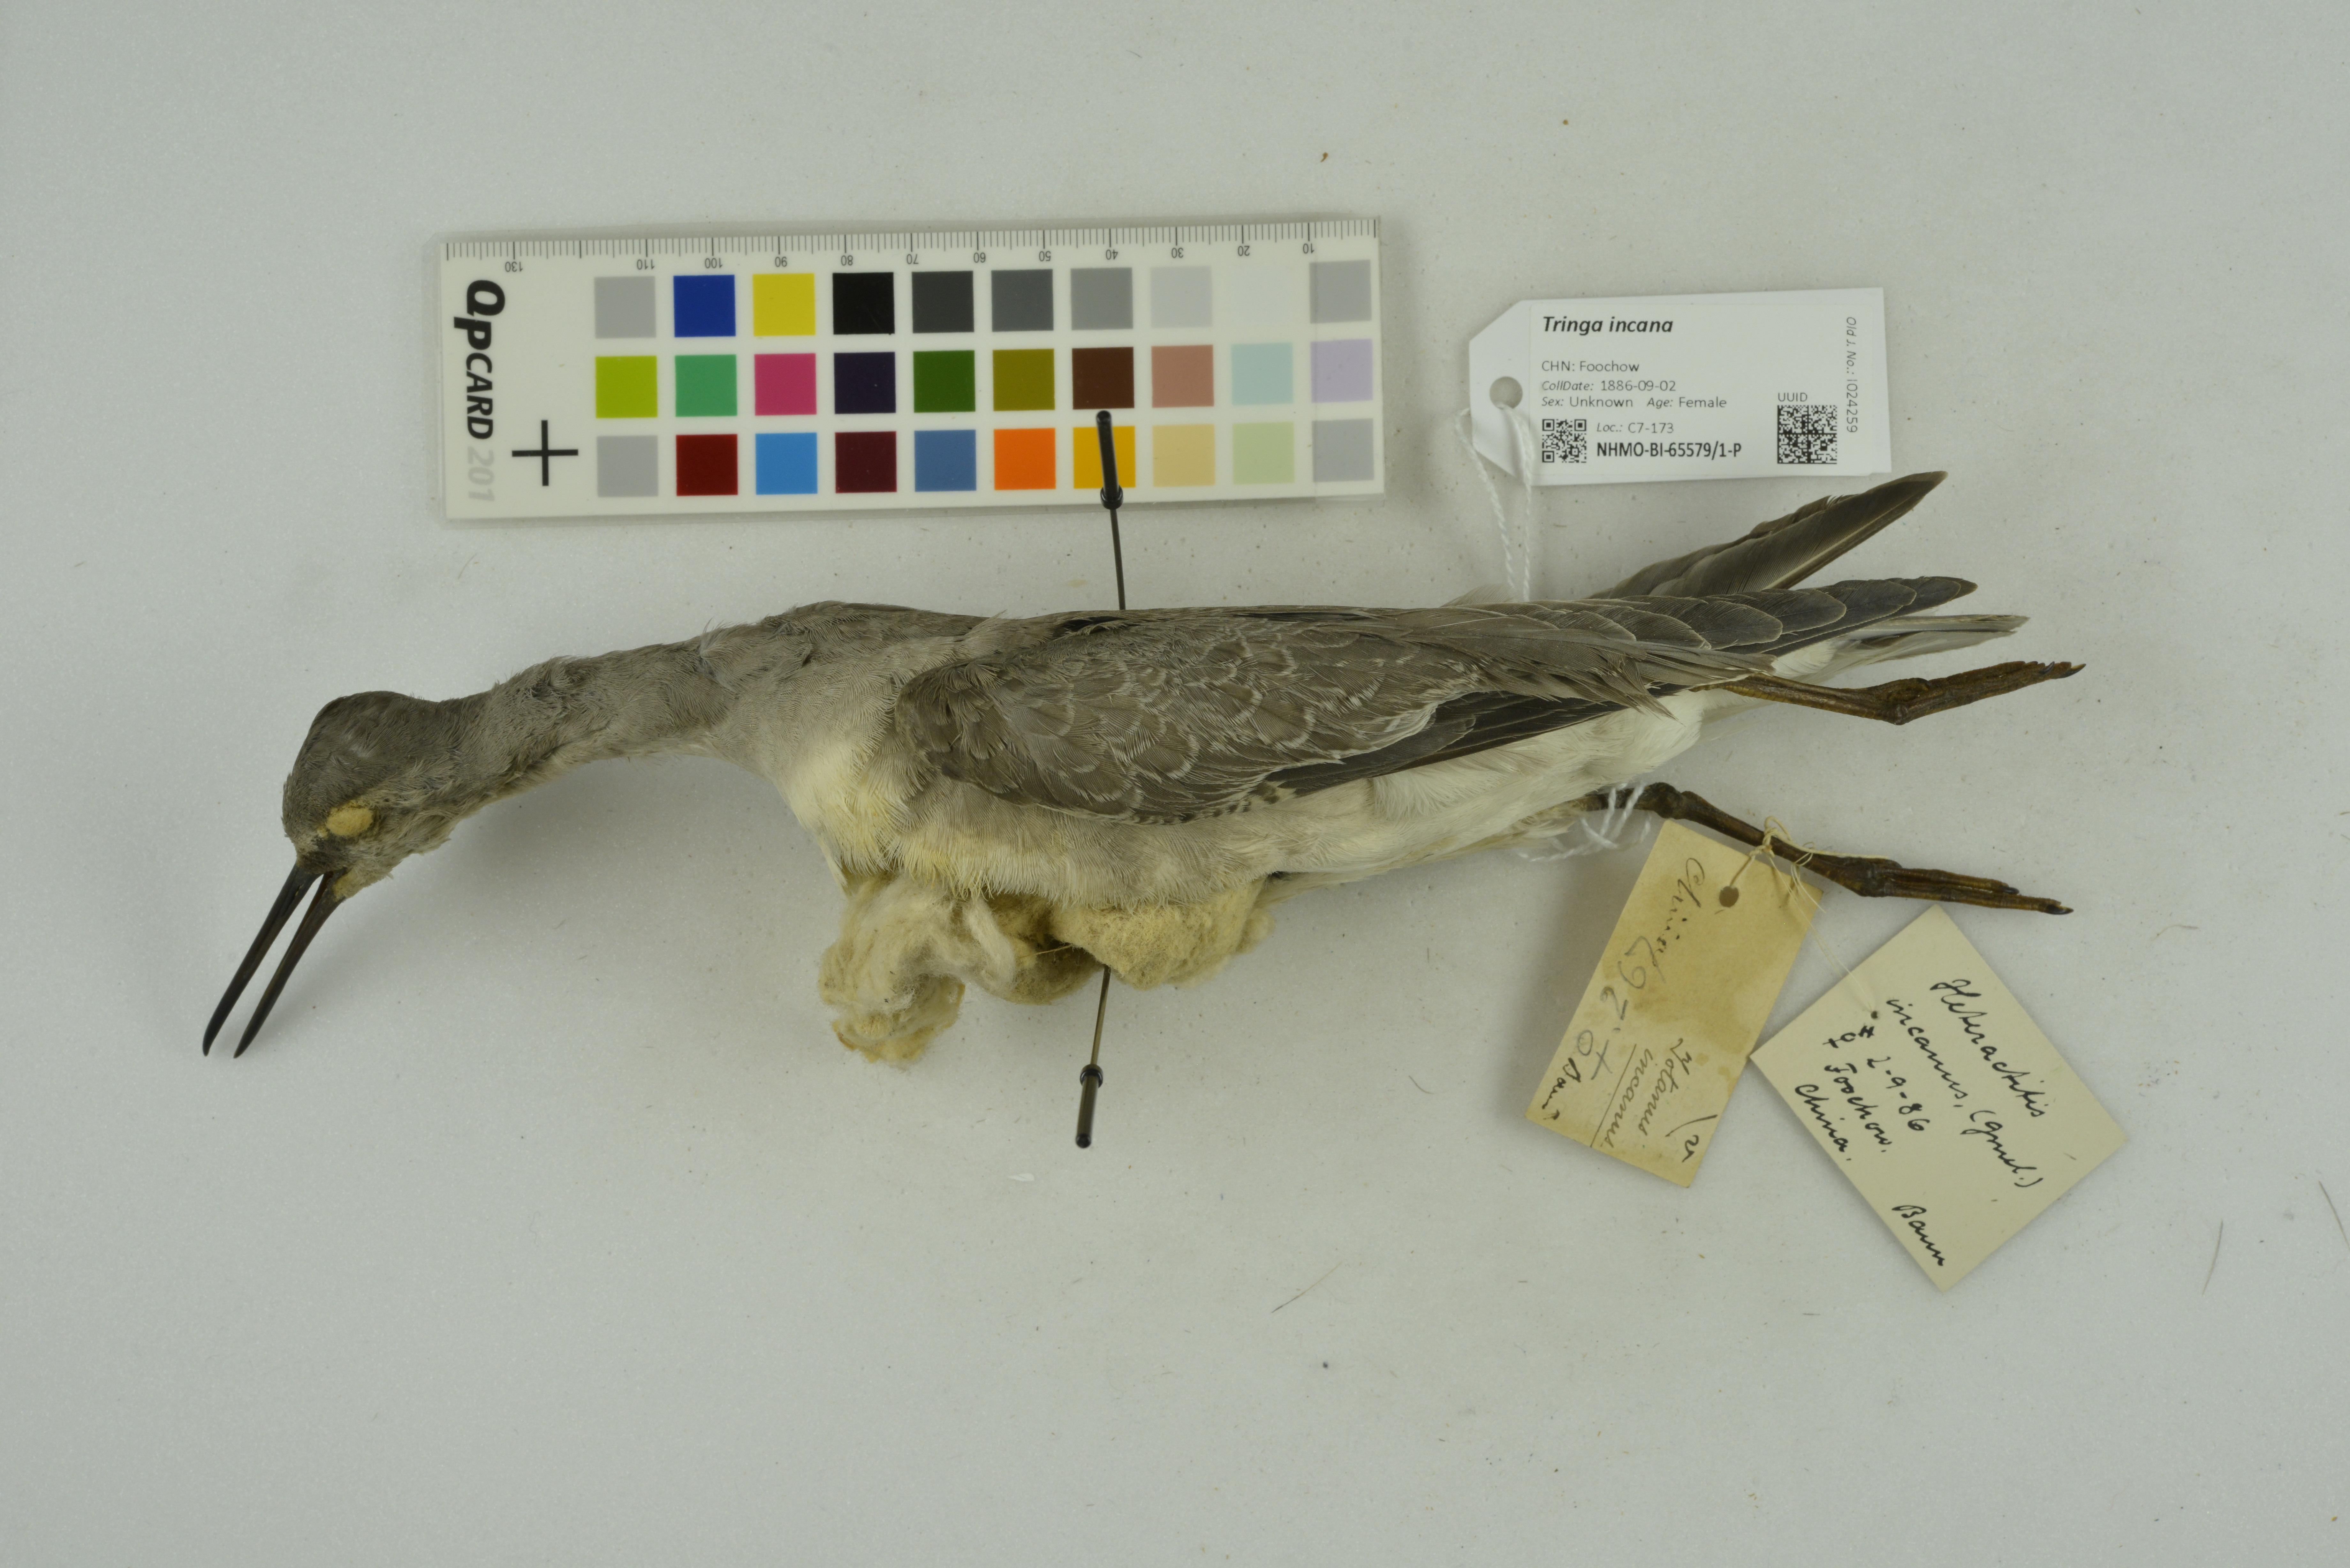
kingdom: Animalia
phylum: Chordata
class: Aves
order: Charadriiformes
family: Scolopacidae
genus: Tringa
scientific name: Tringa incana
